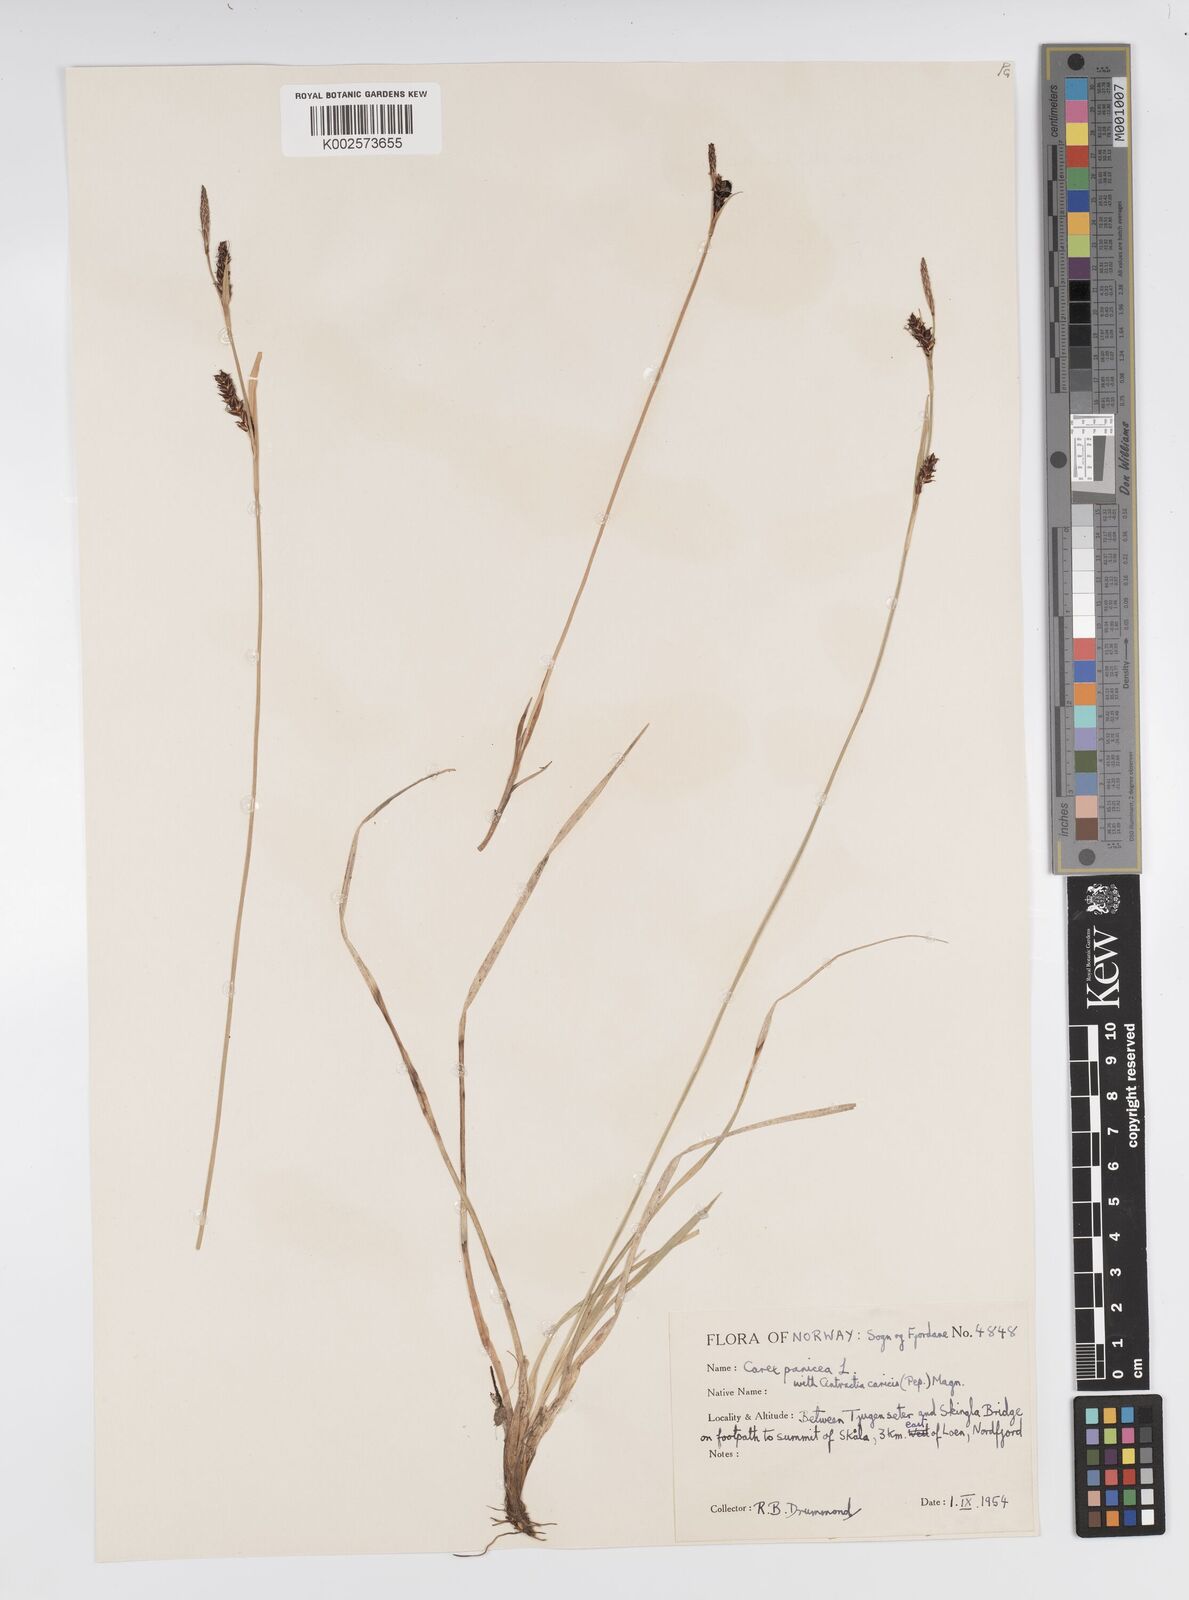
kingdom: Plantae
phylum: Tracheophyta
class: Liliopsida
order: Poales
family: Cyperaceae
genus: Carex
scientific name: Carex panicea
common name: Carnation sedge
